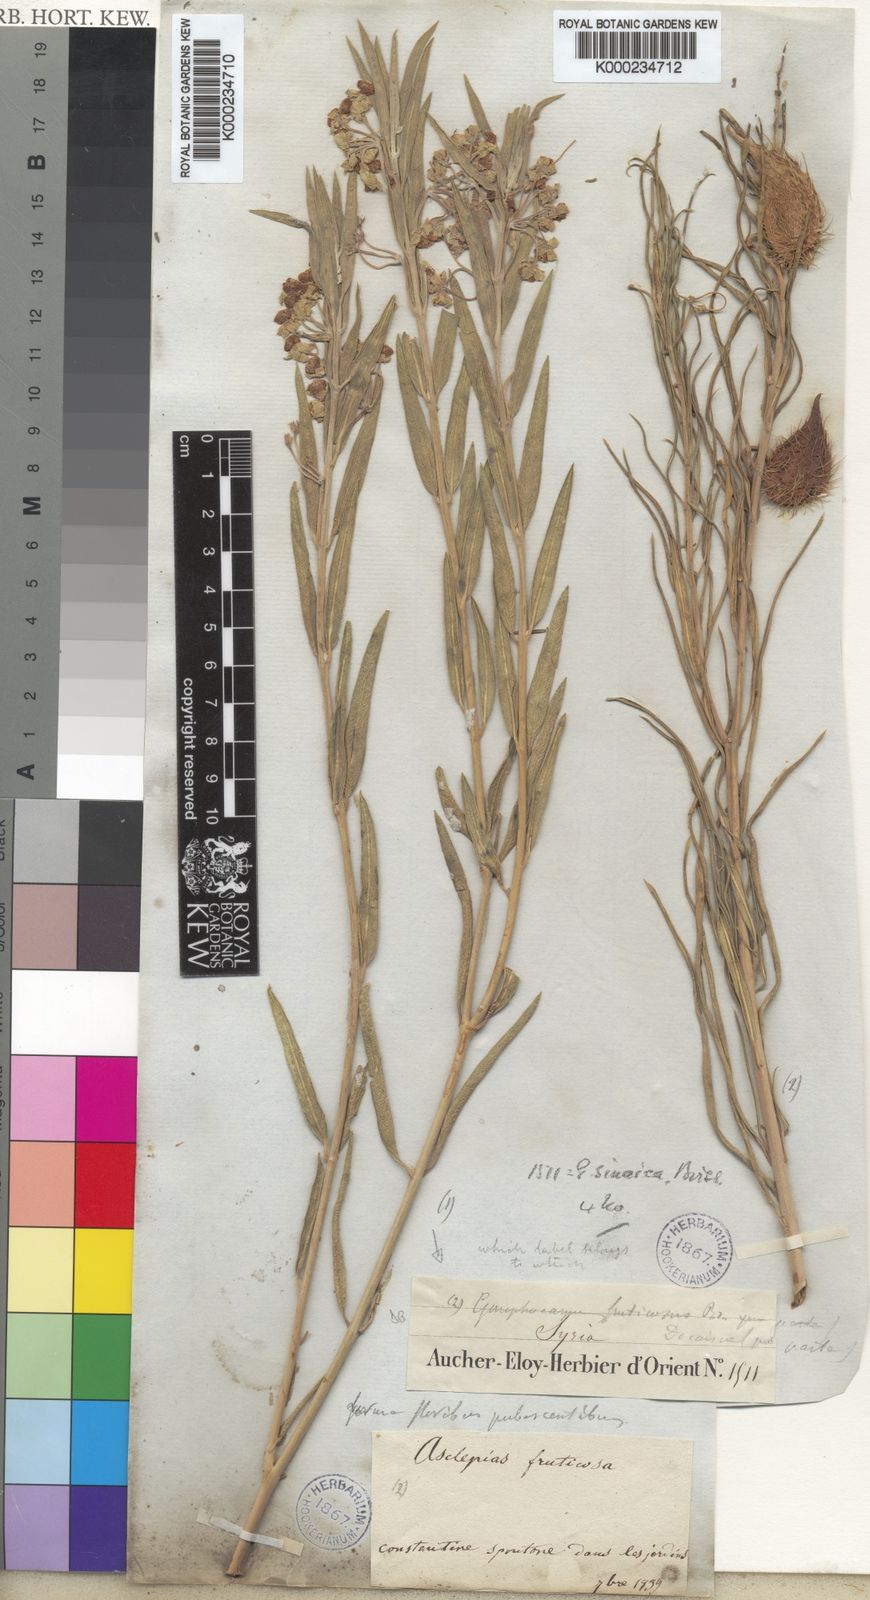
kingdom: Plantae
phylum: Tracheophyta
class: Magnoliopsida
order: Gentianales
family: Apocynaceae
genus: Gomphocarpus
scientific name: Gomphocarpus sinaicus
